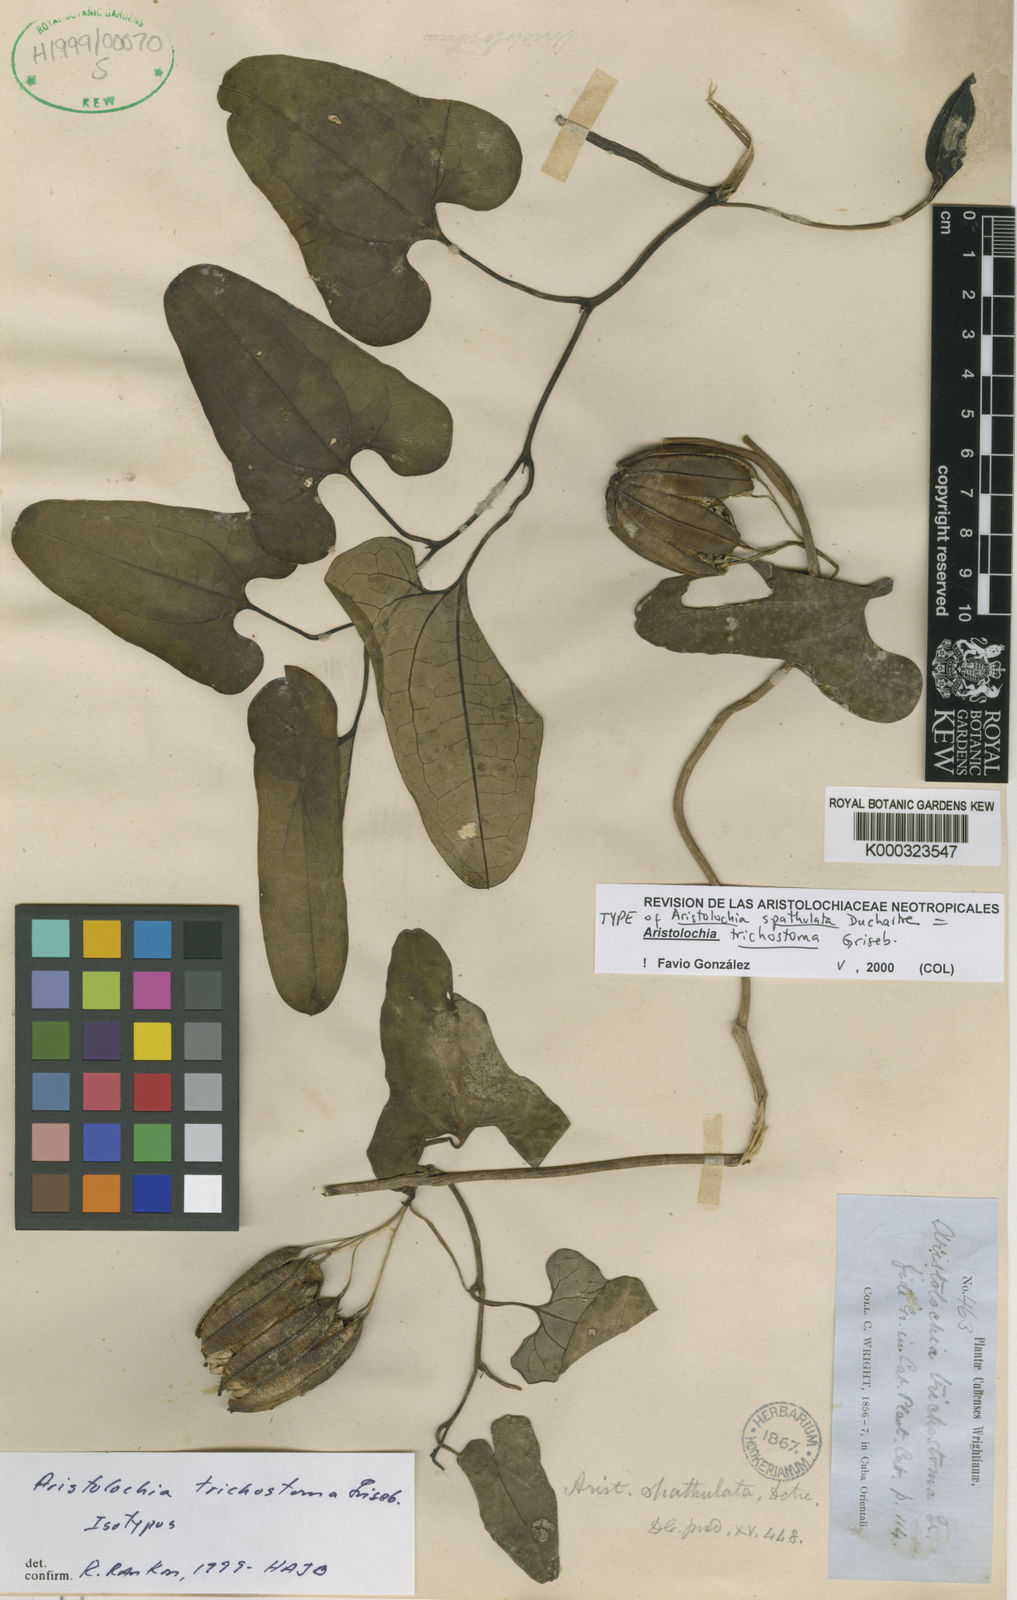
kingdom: Plantae
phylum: Tracheophyta
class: Magnoliopsida
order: Piperales
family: Aristolochiaceae
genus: Aristolochia
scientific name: Aristolochia trichostoma
